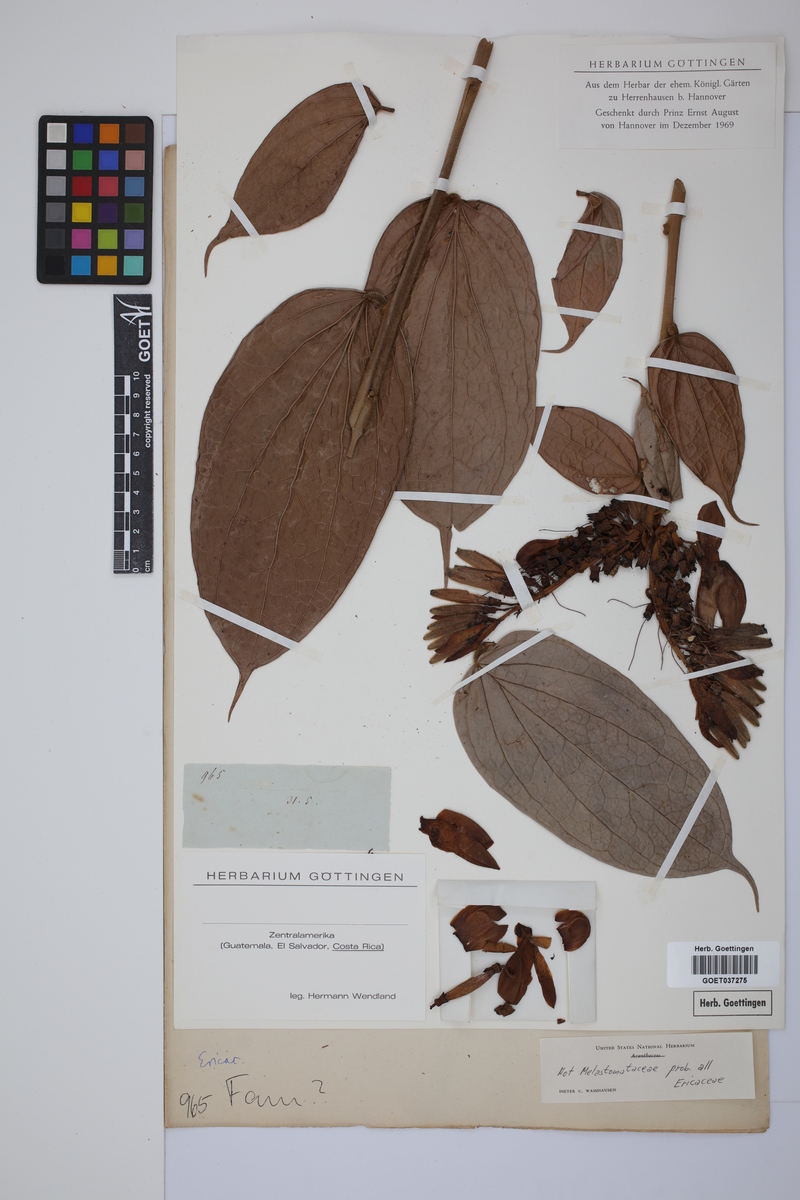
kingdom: Plantae
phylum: Tracheophyta
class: Magnoliopsida
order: Ericales
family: Ericaceae
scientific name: Ericaceae
